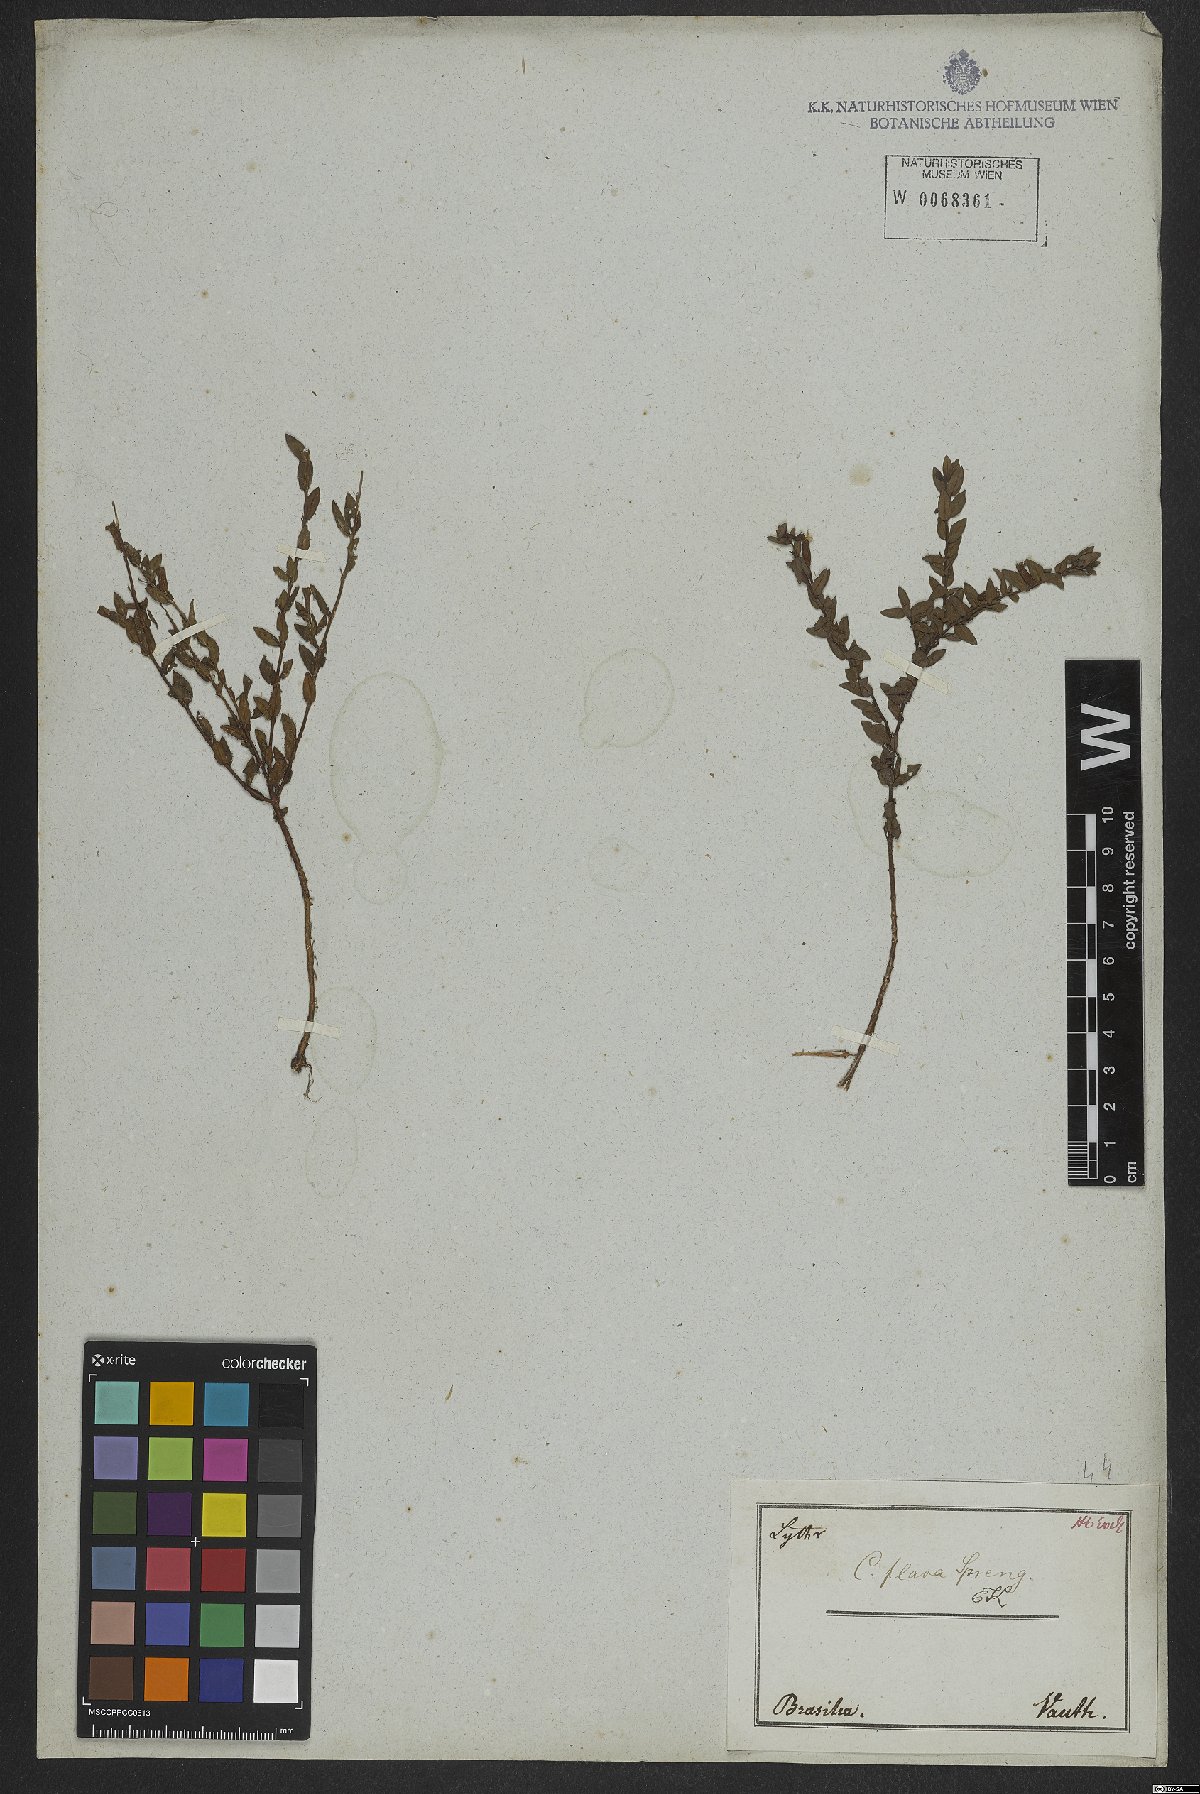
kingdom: Plantae
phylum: Tracheophyta
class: Magnoliopsida
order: Myrtales
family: Lythraceae
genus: Cuphea
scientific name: Cuphea flava
